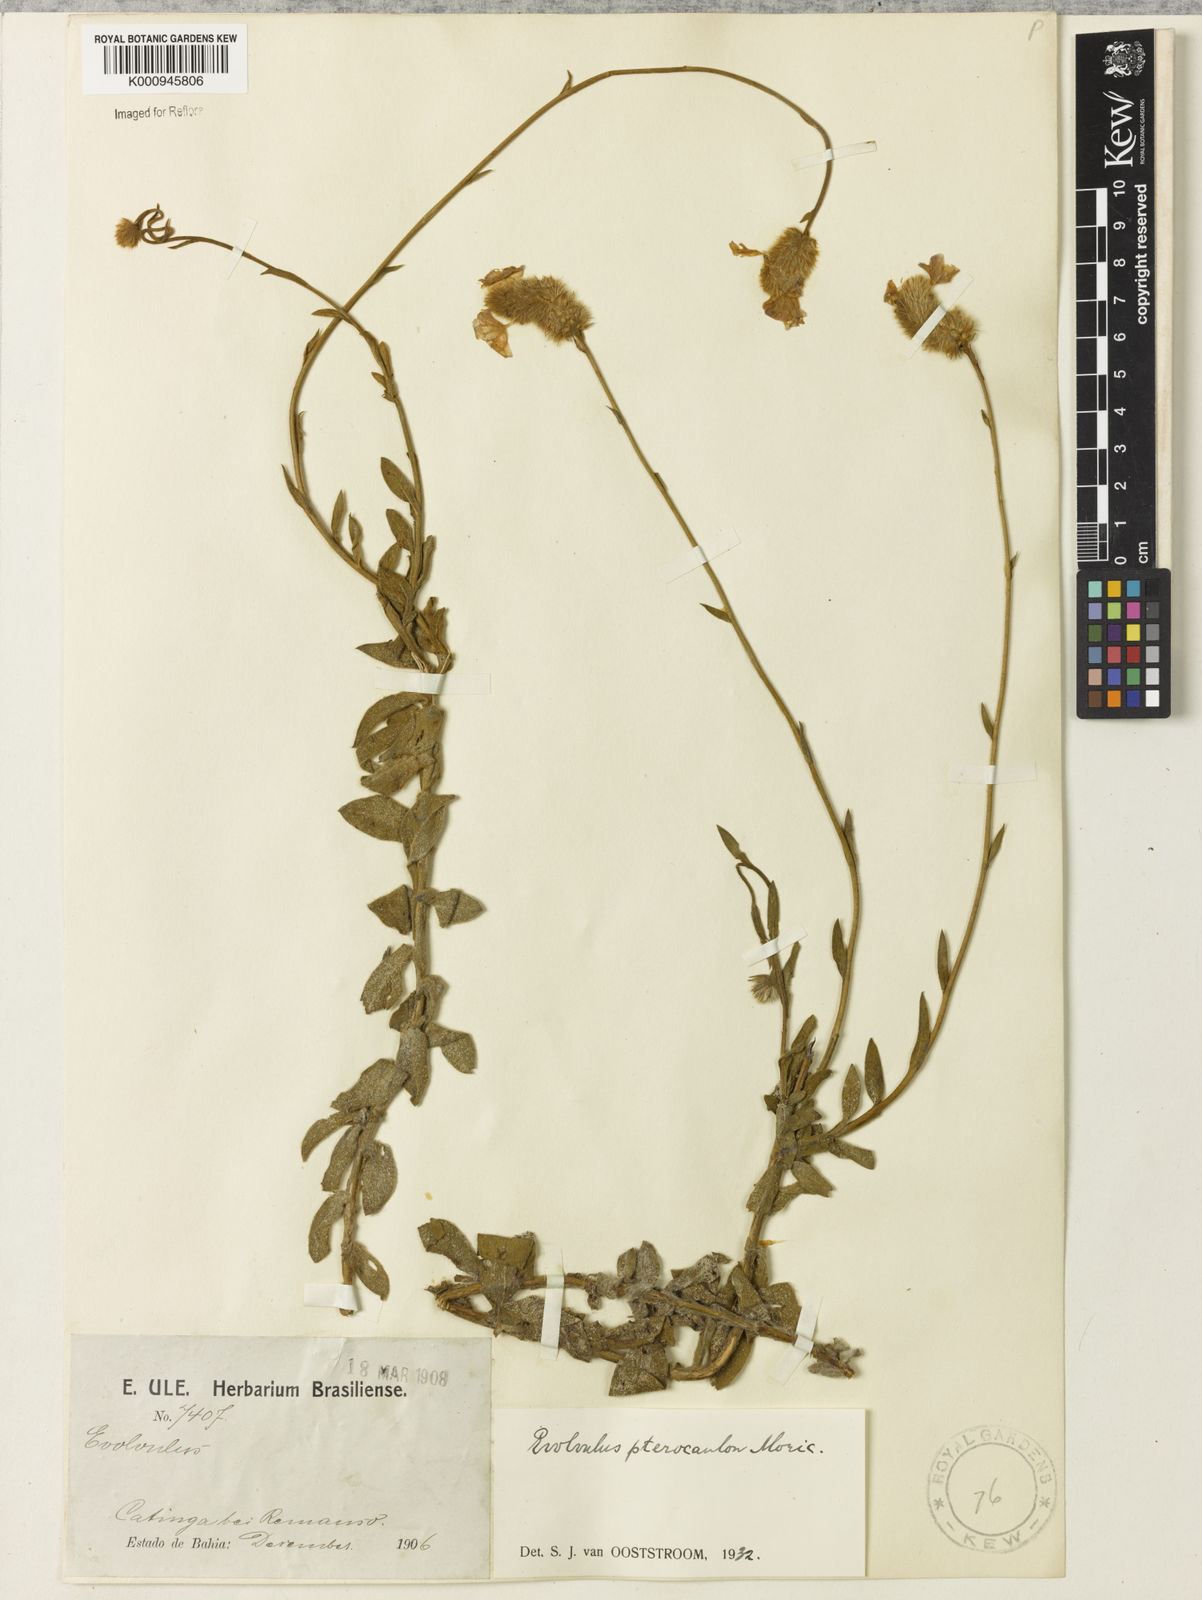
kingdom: Plantae
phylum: Tracheophyta
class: Magnoliopsida
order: Solanales
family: Convolvulaceae
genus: Evolvulus
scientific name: Evolvulus pterocaulon
